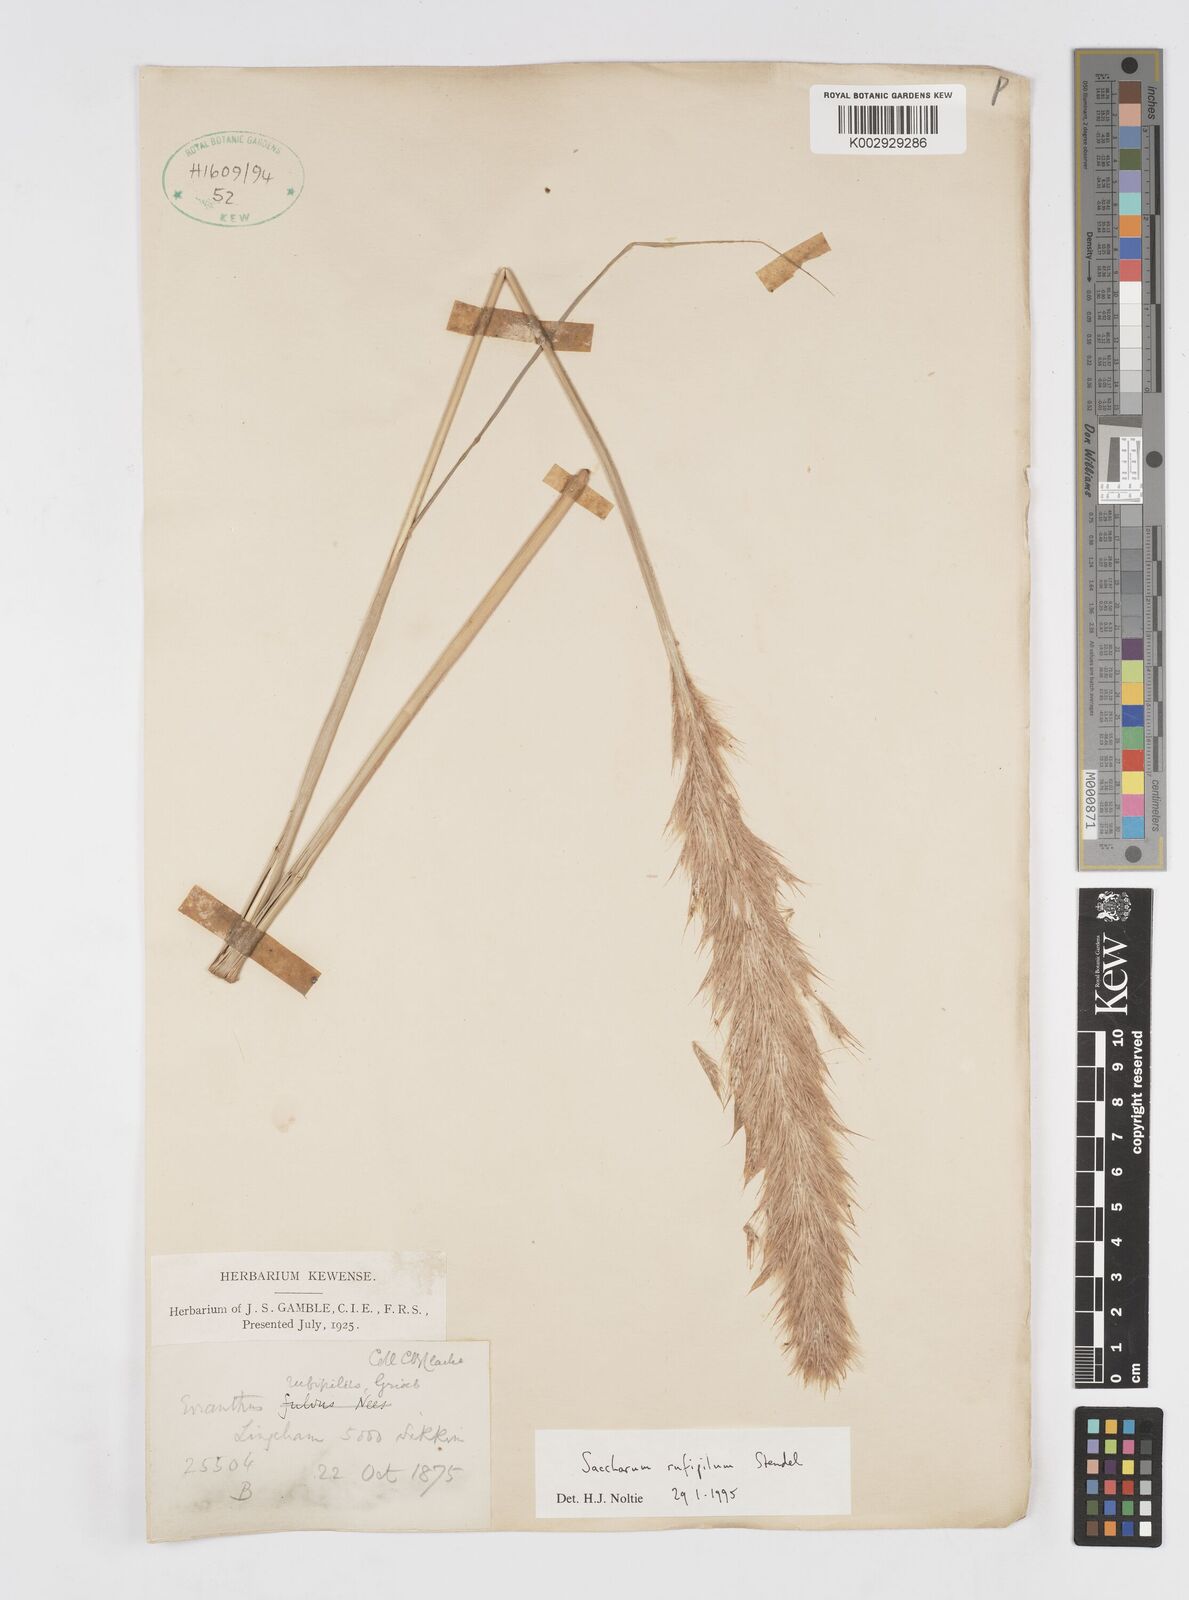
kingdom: Plantae
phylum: Tracheophyta
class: Liliopsida
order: Poales
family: Poaceae
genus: Tripidium
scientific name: Tripidium rufipilum
